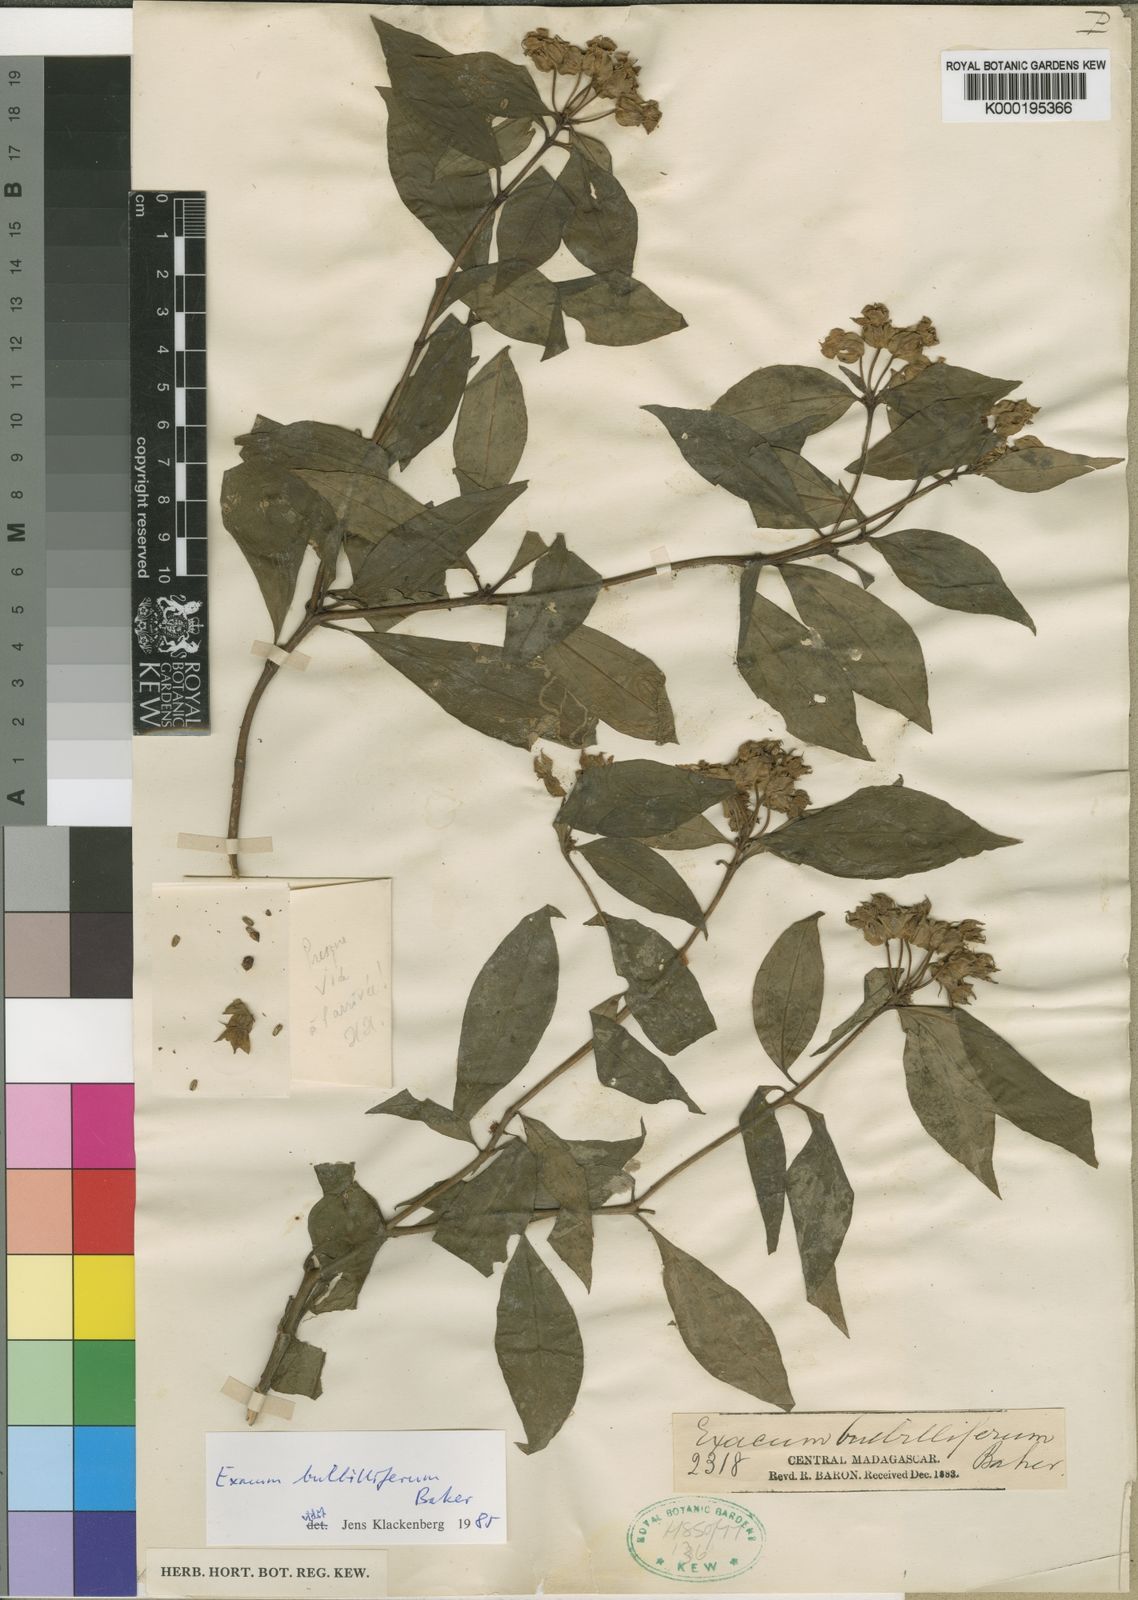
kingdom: Plantae
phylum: Tracheophyta
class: Magnoliopsida
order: Gentianales
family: Gentianaceae
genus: Exacum
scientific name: Exacum bulbilliferum
